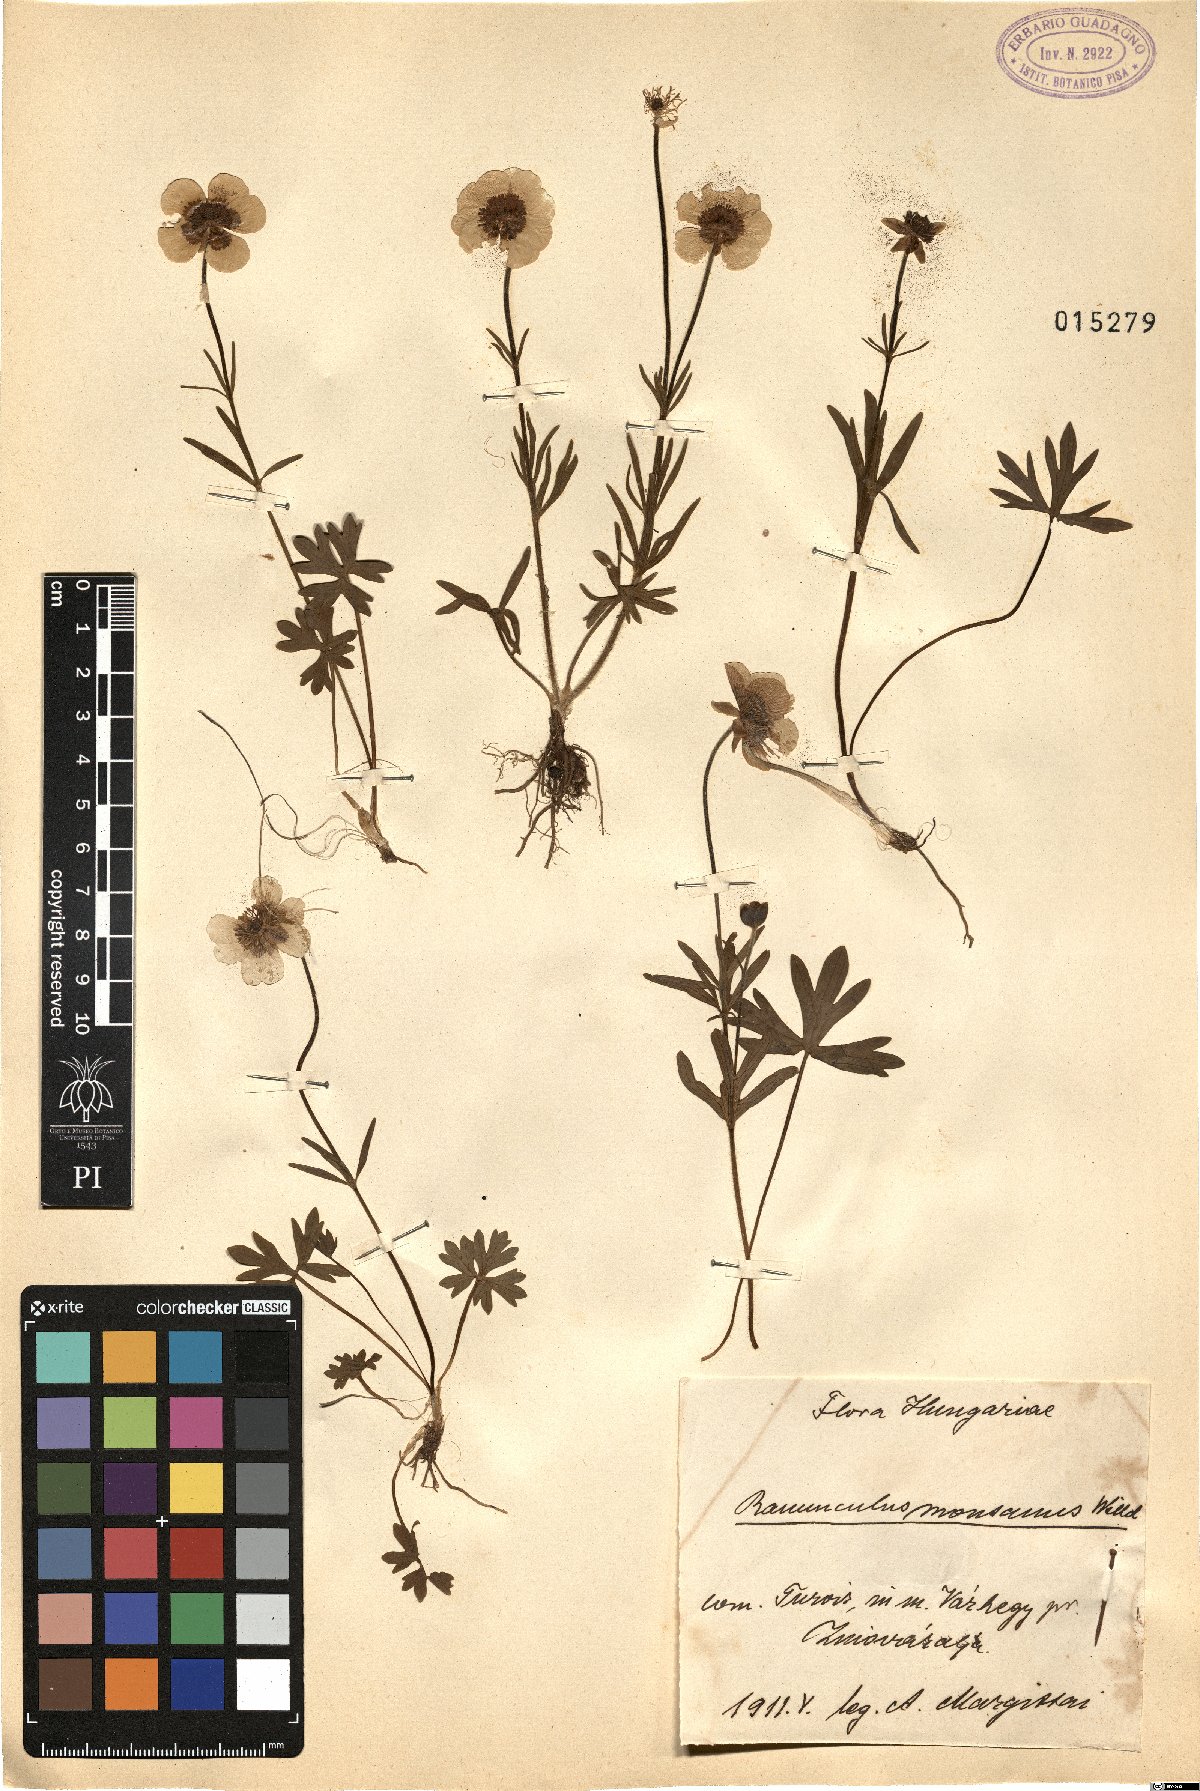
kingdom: Plantae
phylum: Tracheophyta
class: Magnoliopsida
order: Ranunculales
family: Ranunculaceae
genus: Ranunculus
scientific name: Ranunculus montanus
